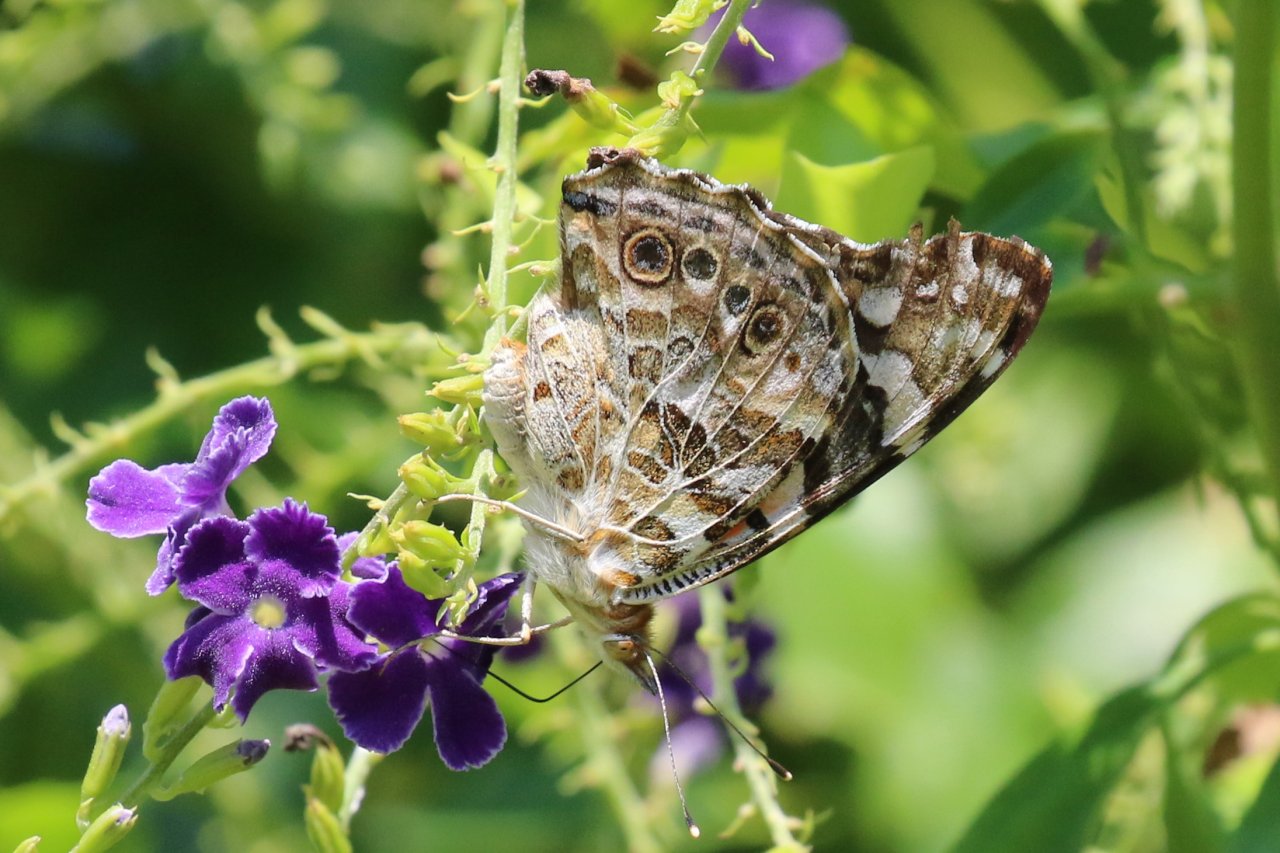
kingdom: Animalia
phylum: Arthropoda
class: Insecta
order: Lepidoptera
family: Nymphalidae
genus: Vanessa
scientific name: Vanessa cardui
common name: Painted Lady
